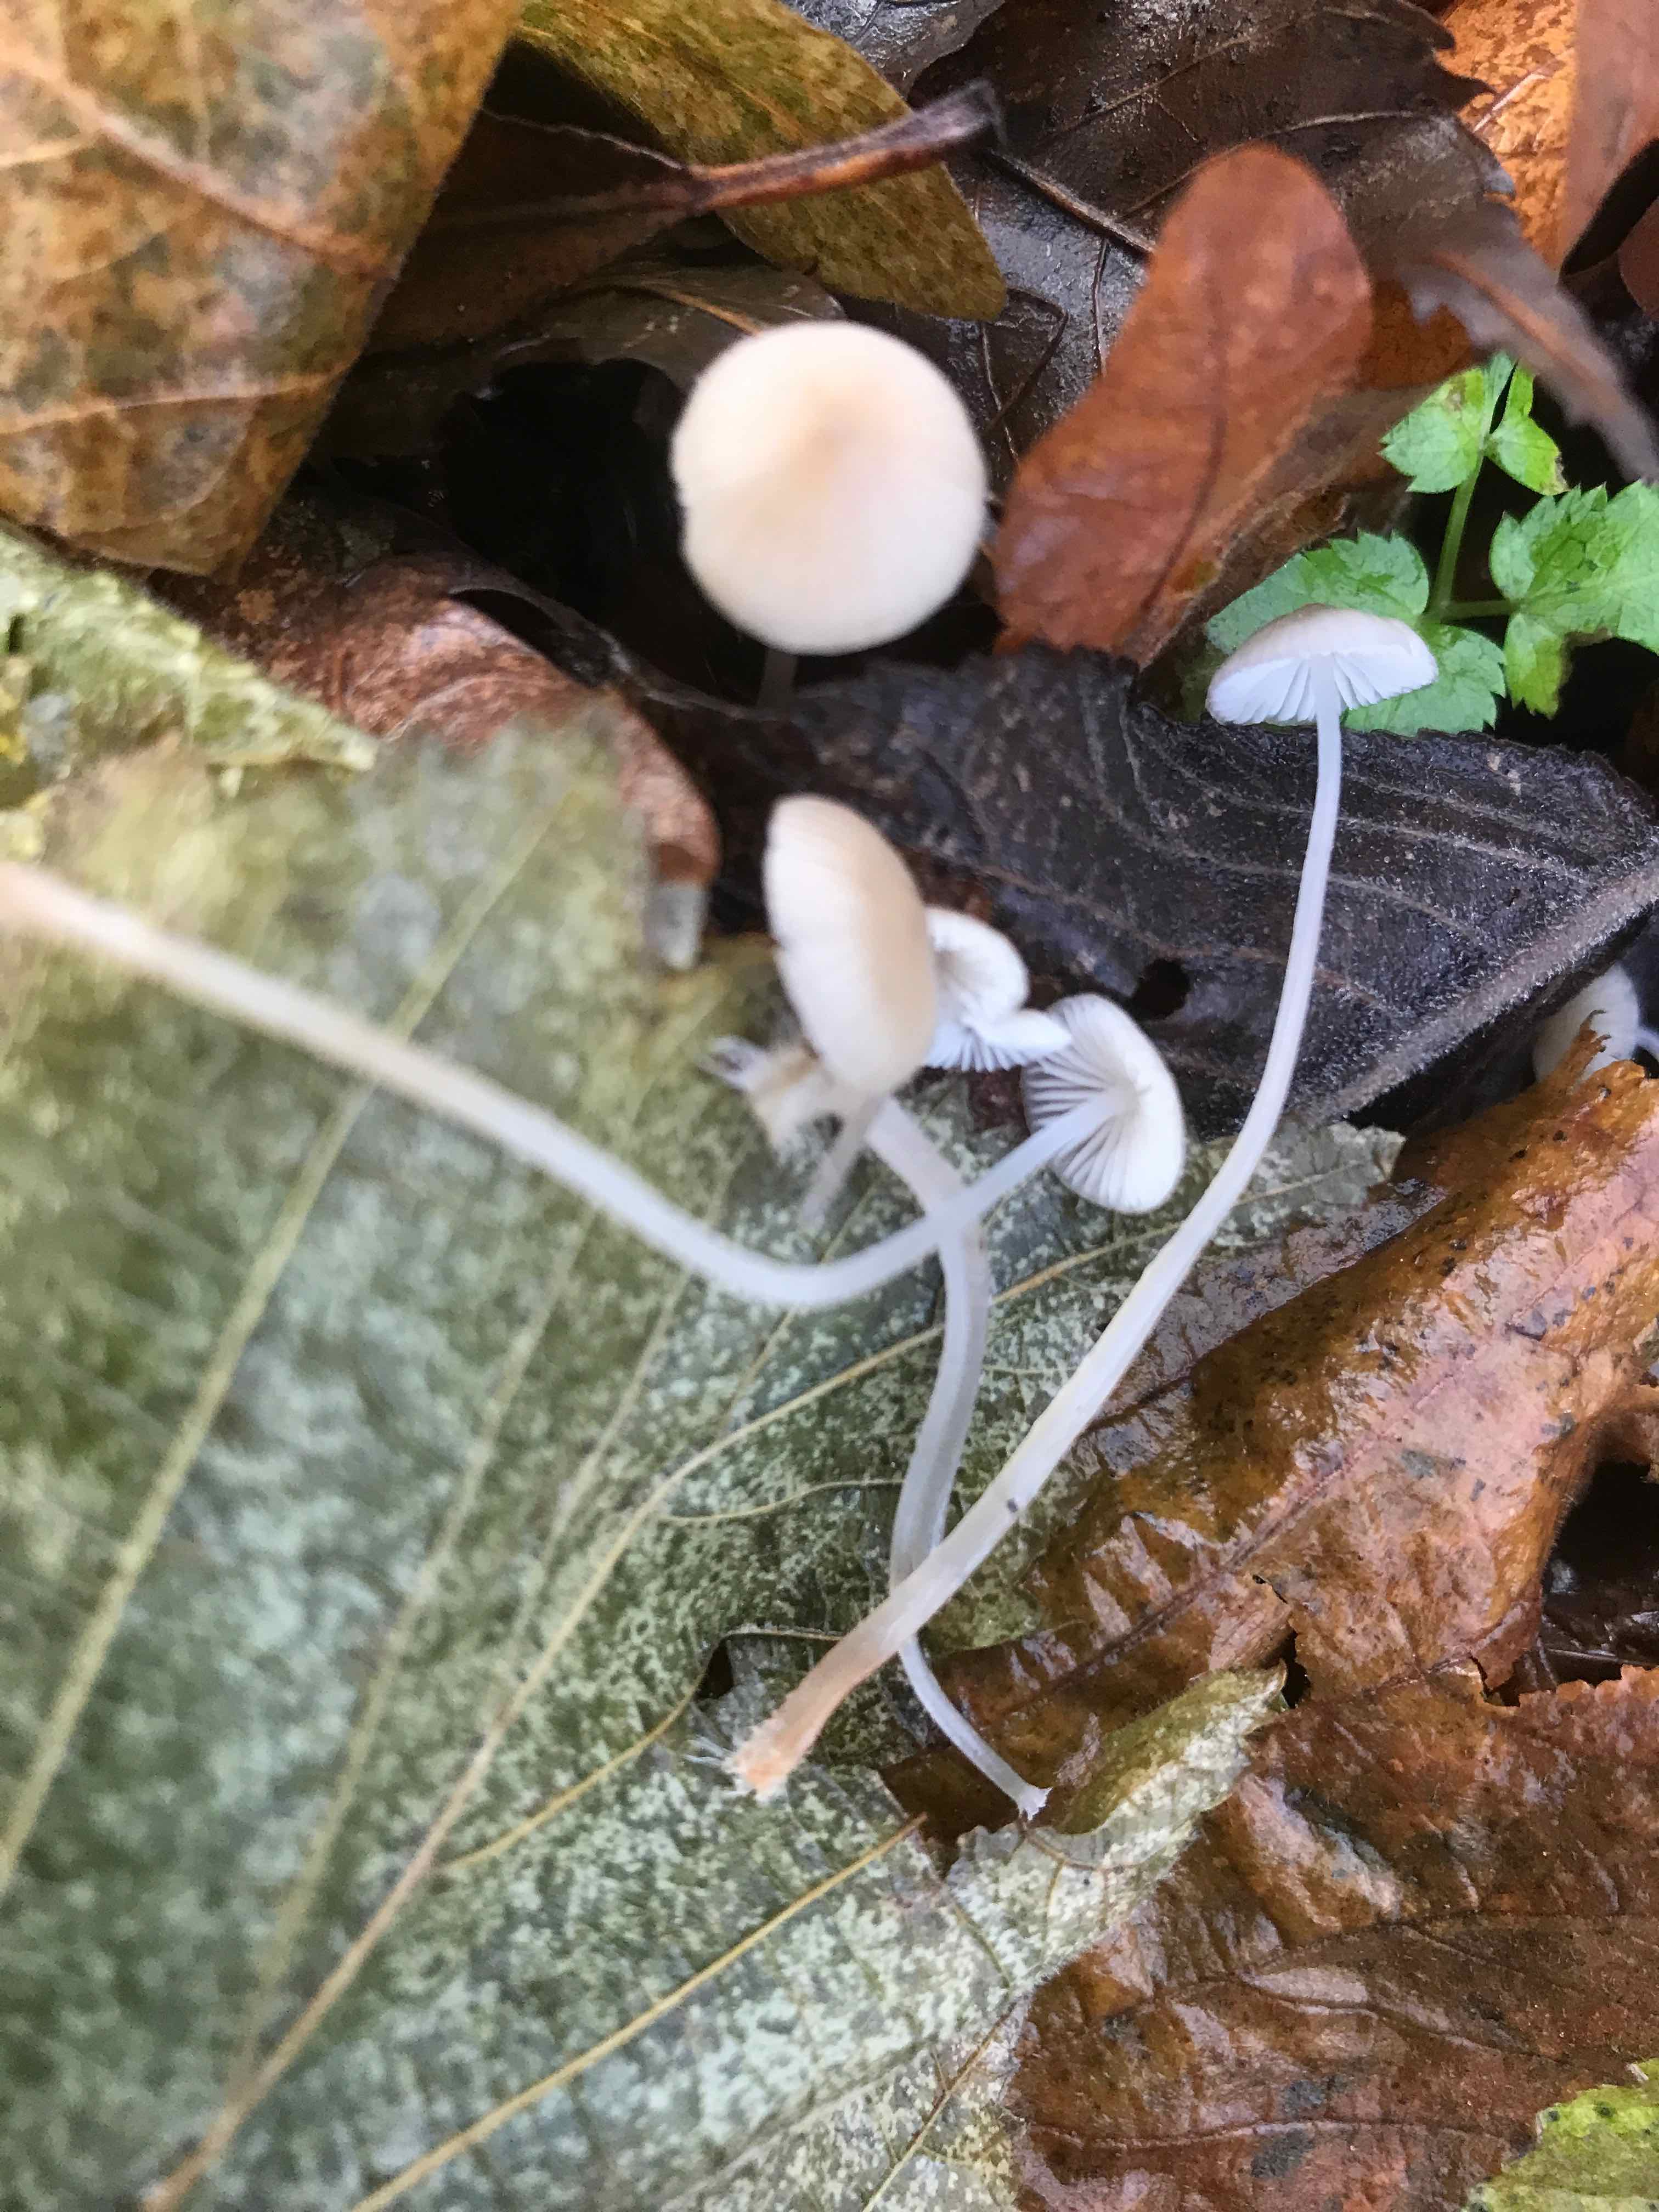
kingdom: Fungi
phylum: Basidiomycota
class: Agaricomycetes
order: Agaricales
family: Mycenaceae
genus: Mycena
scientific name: Mycena
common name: huesvamp
